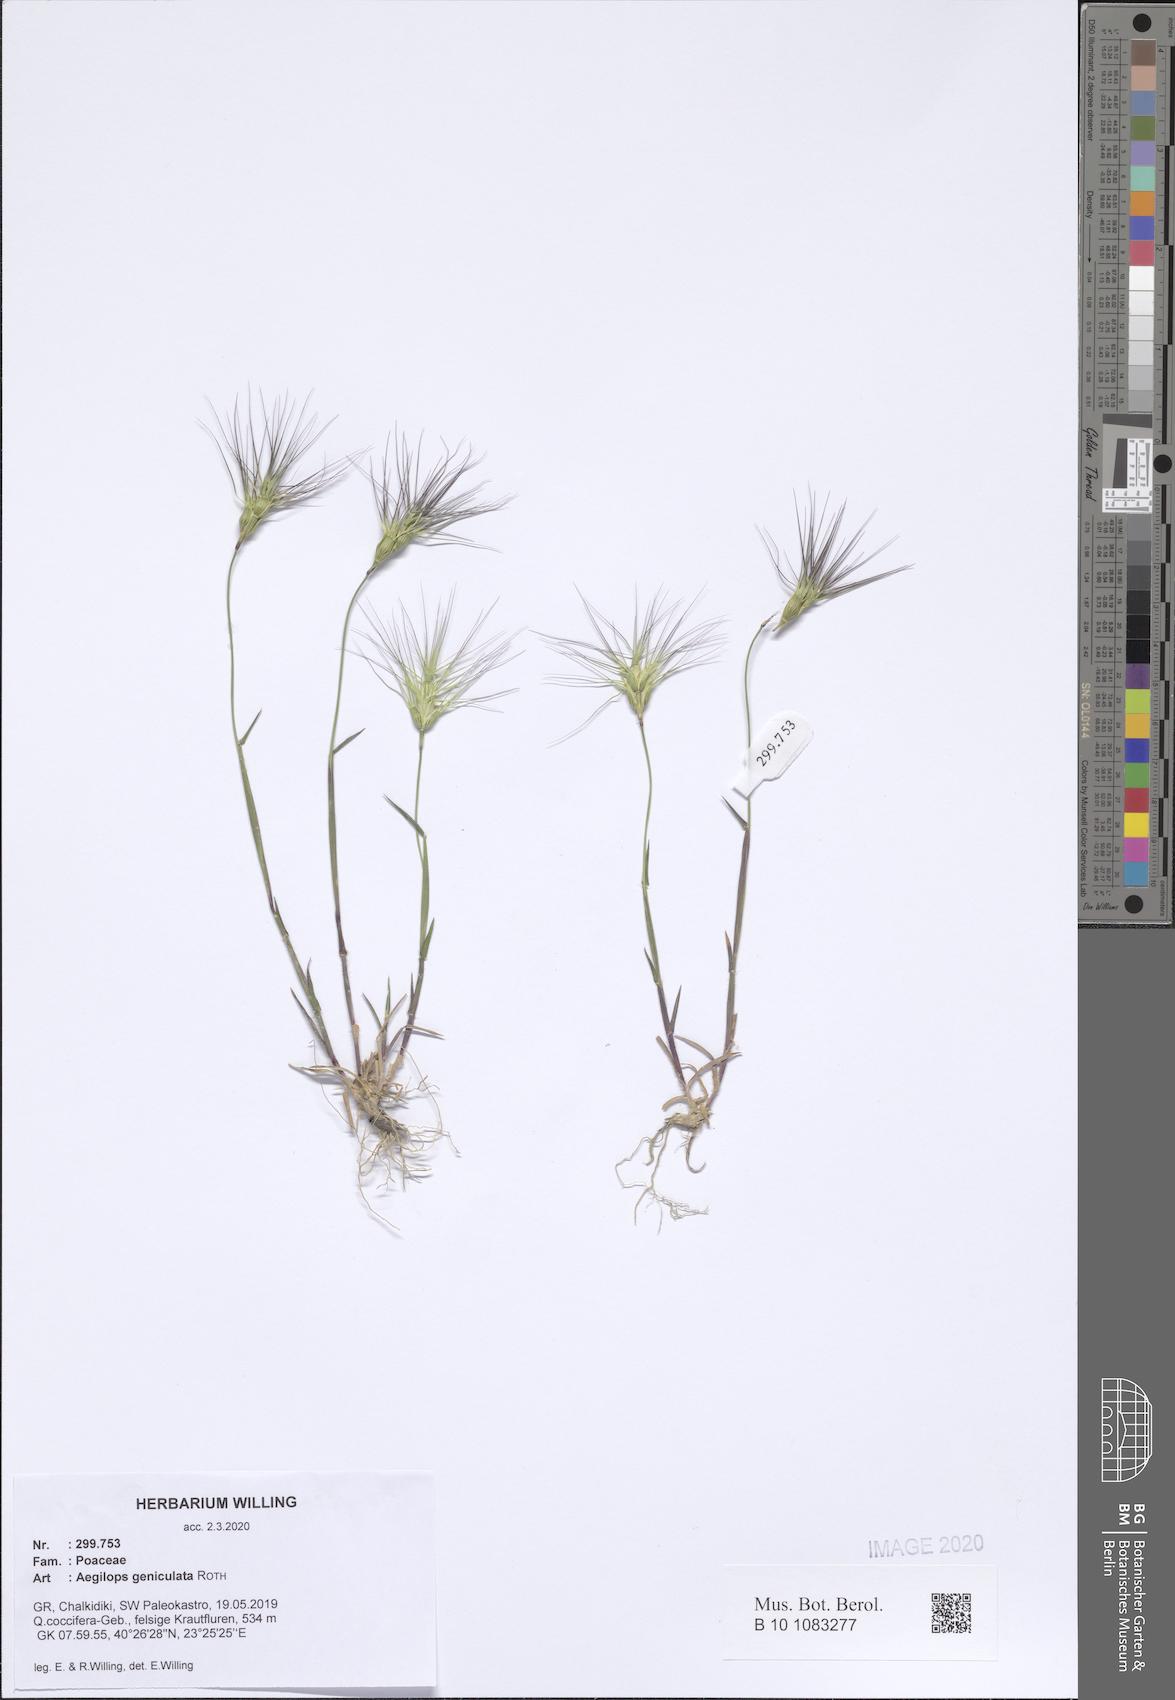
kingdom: Plantae
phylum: Tracheophyta
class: Liliopsida
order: Poales
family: Poaceae
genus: Aegilops
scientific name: Aegilops geniculata
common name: Ovate goat grass
